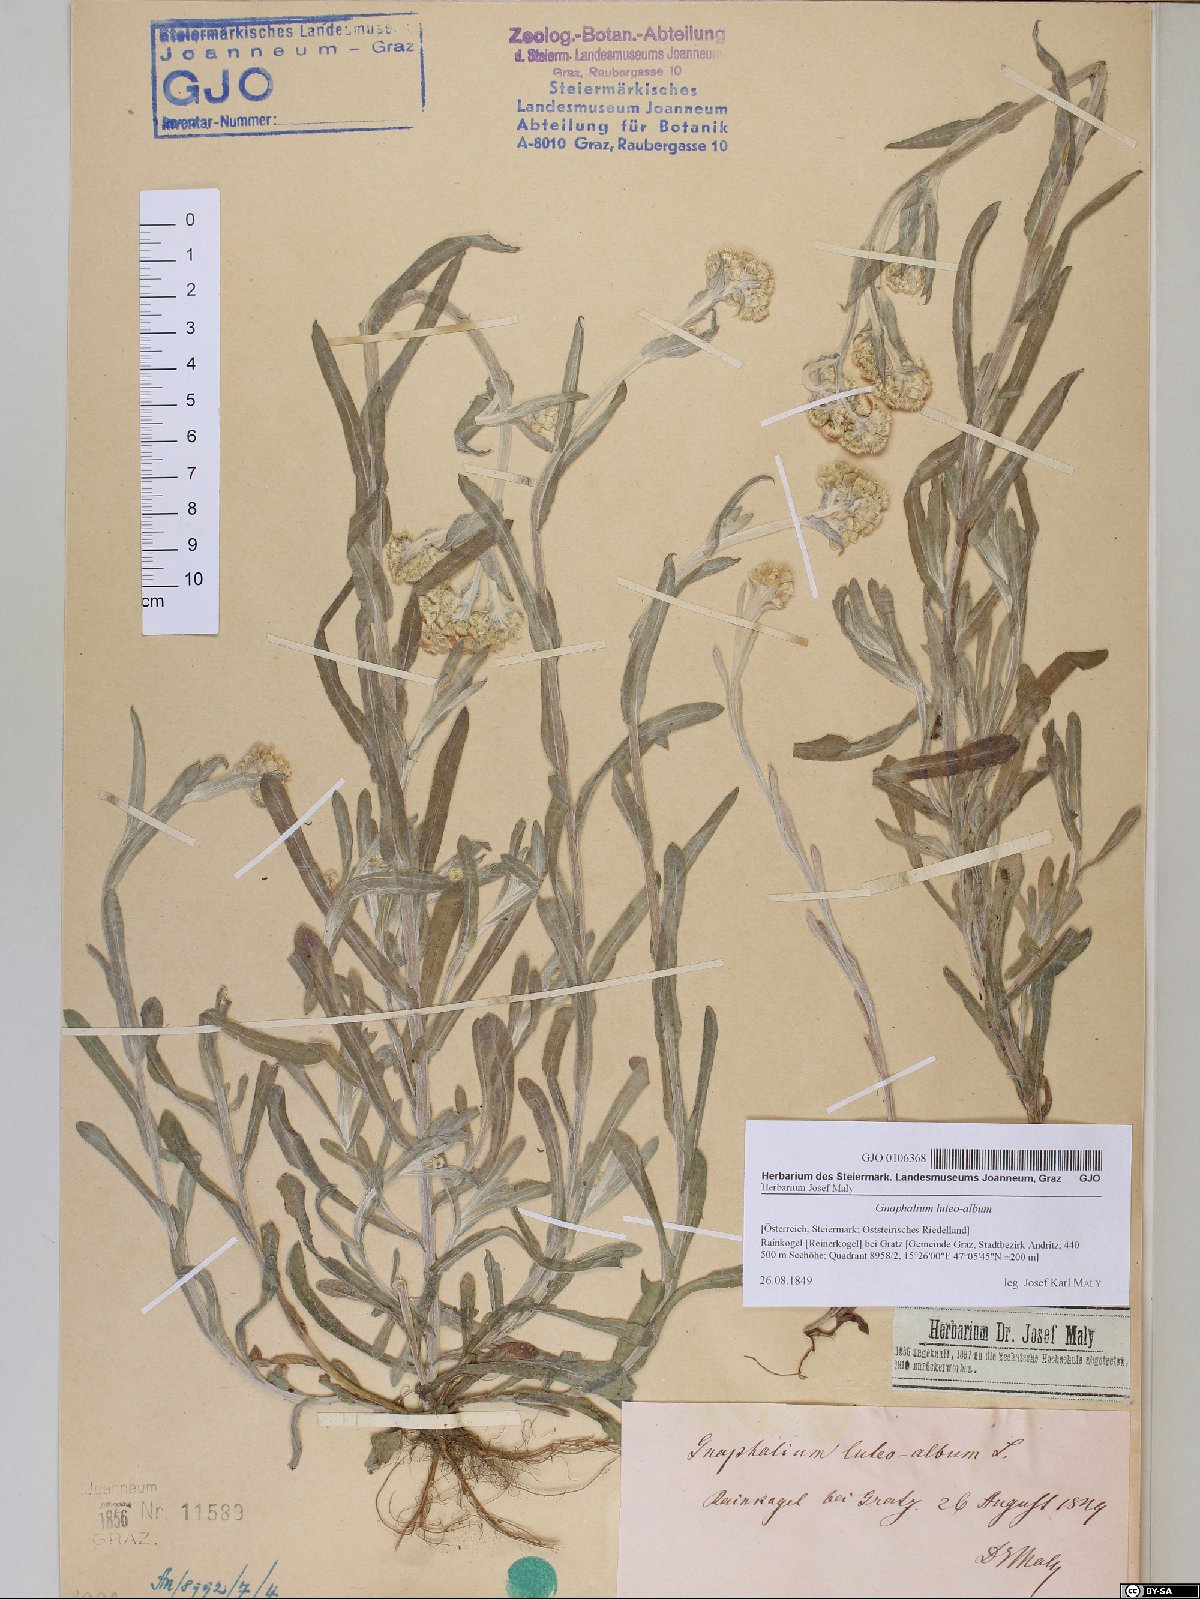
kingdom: Plantae
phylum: Tracheophyta
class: Magnoliopsida
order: Asterales
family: Asteraceae
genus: Helichrysum
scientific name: Helichrysum luteoalbum
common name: Daisy
